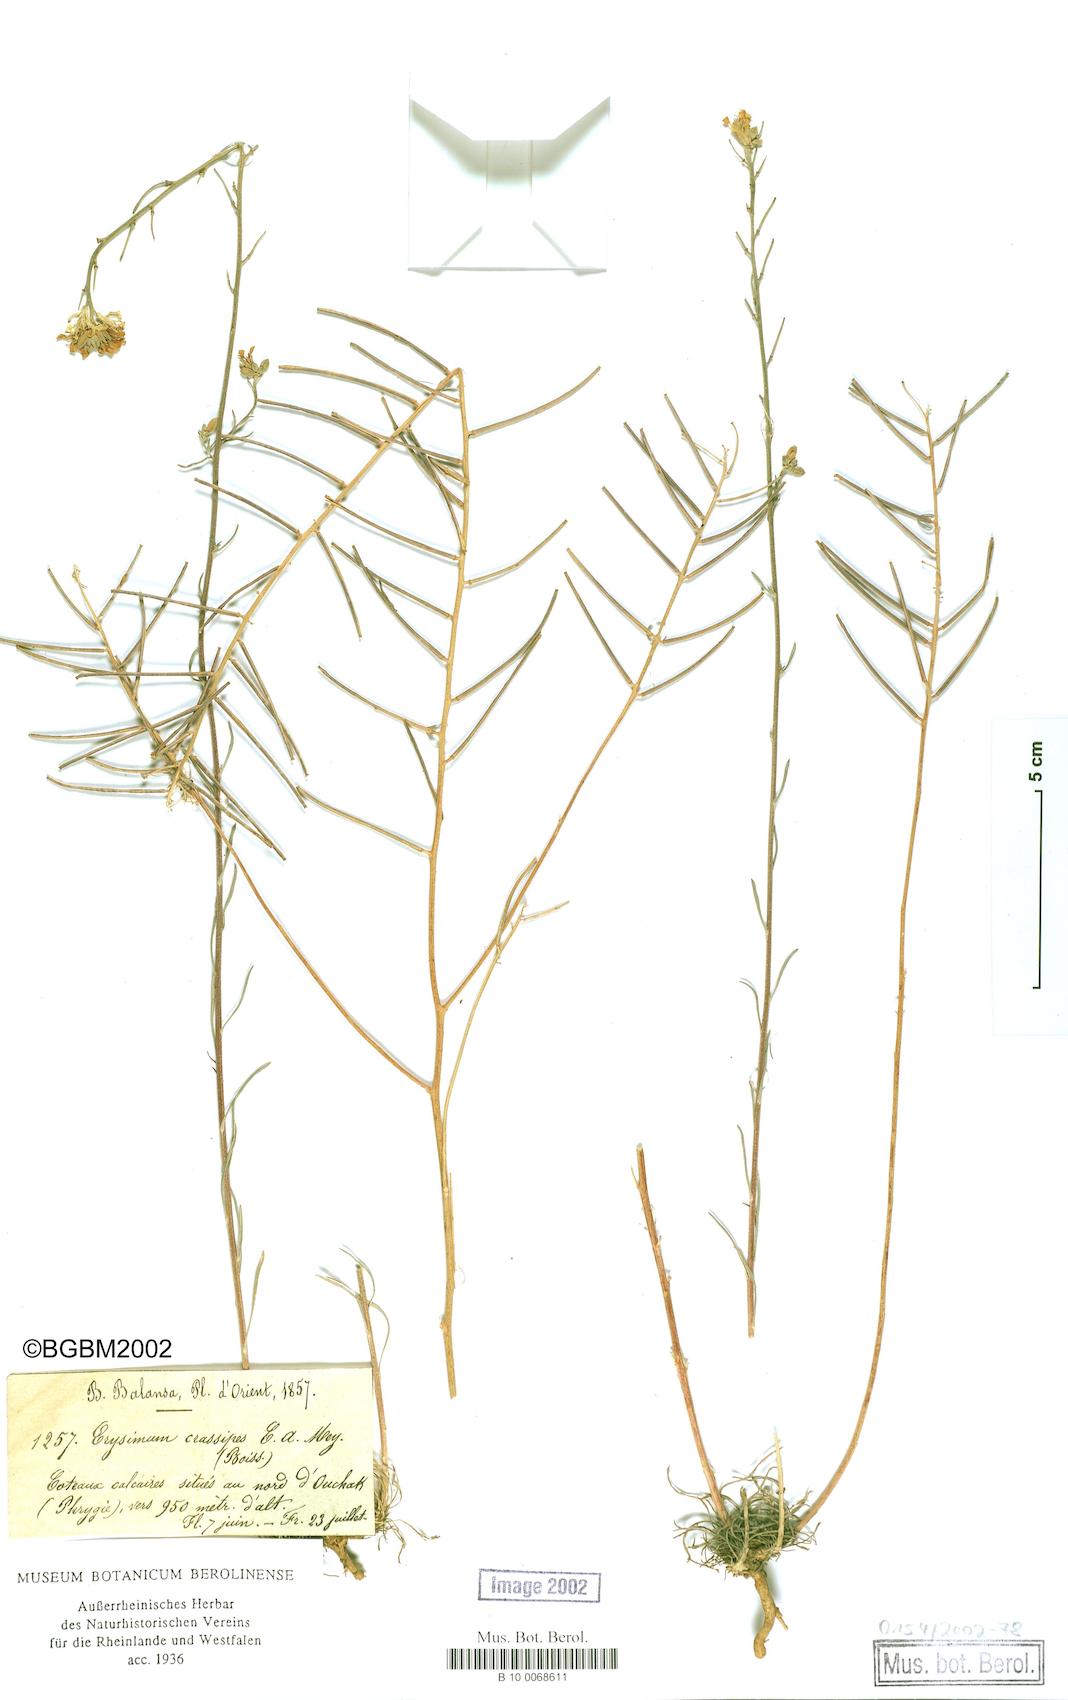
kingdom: Plantae
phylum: Tracheophyta
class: Magnoliopsida
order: Brassicales
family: Brassicaceae
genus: Erysimum
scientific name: Erysimum crassipes
